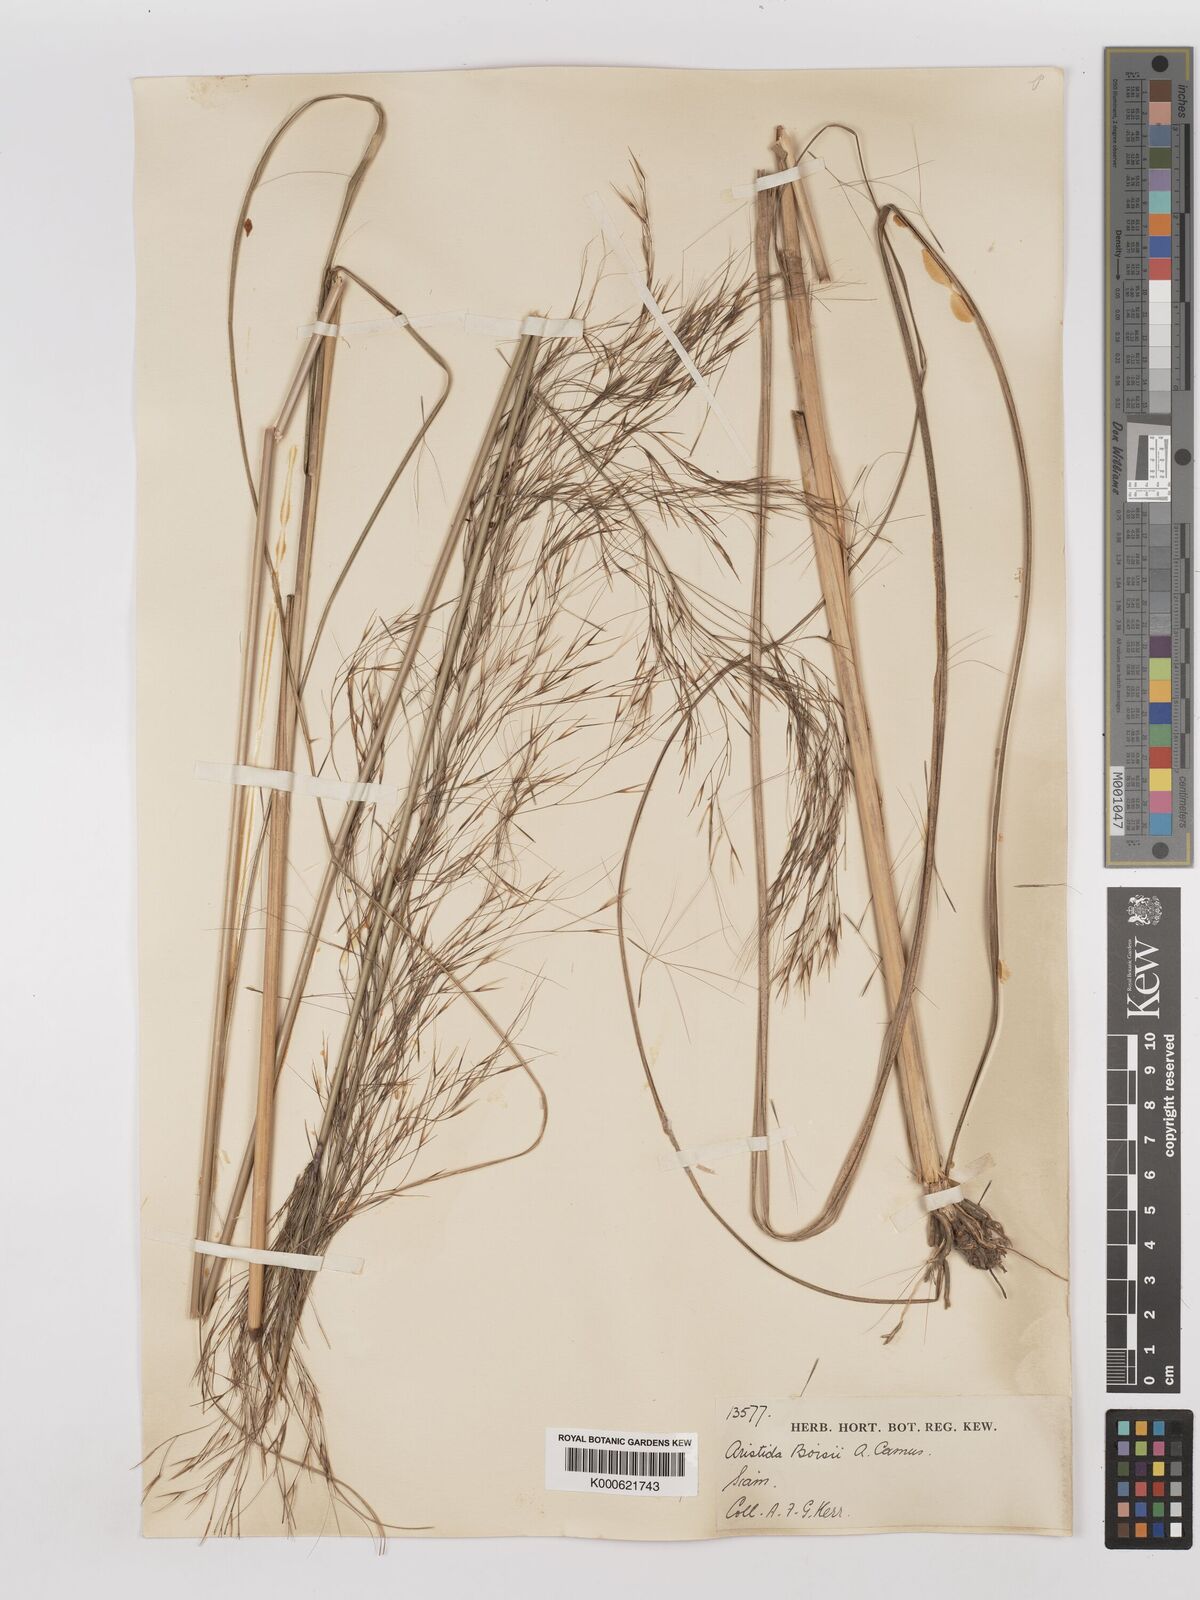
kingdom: Plantae
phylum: Tracheophyta
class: Liliopsida
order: Poales
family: Poaceae
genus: Aristida
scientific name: Aristida culionensis
